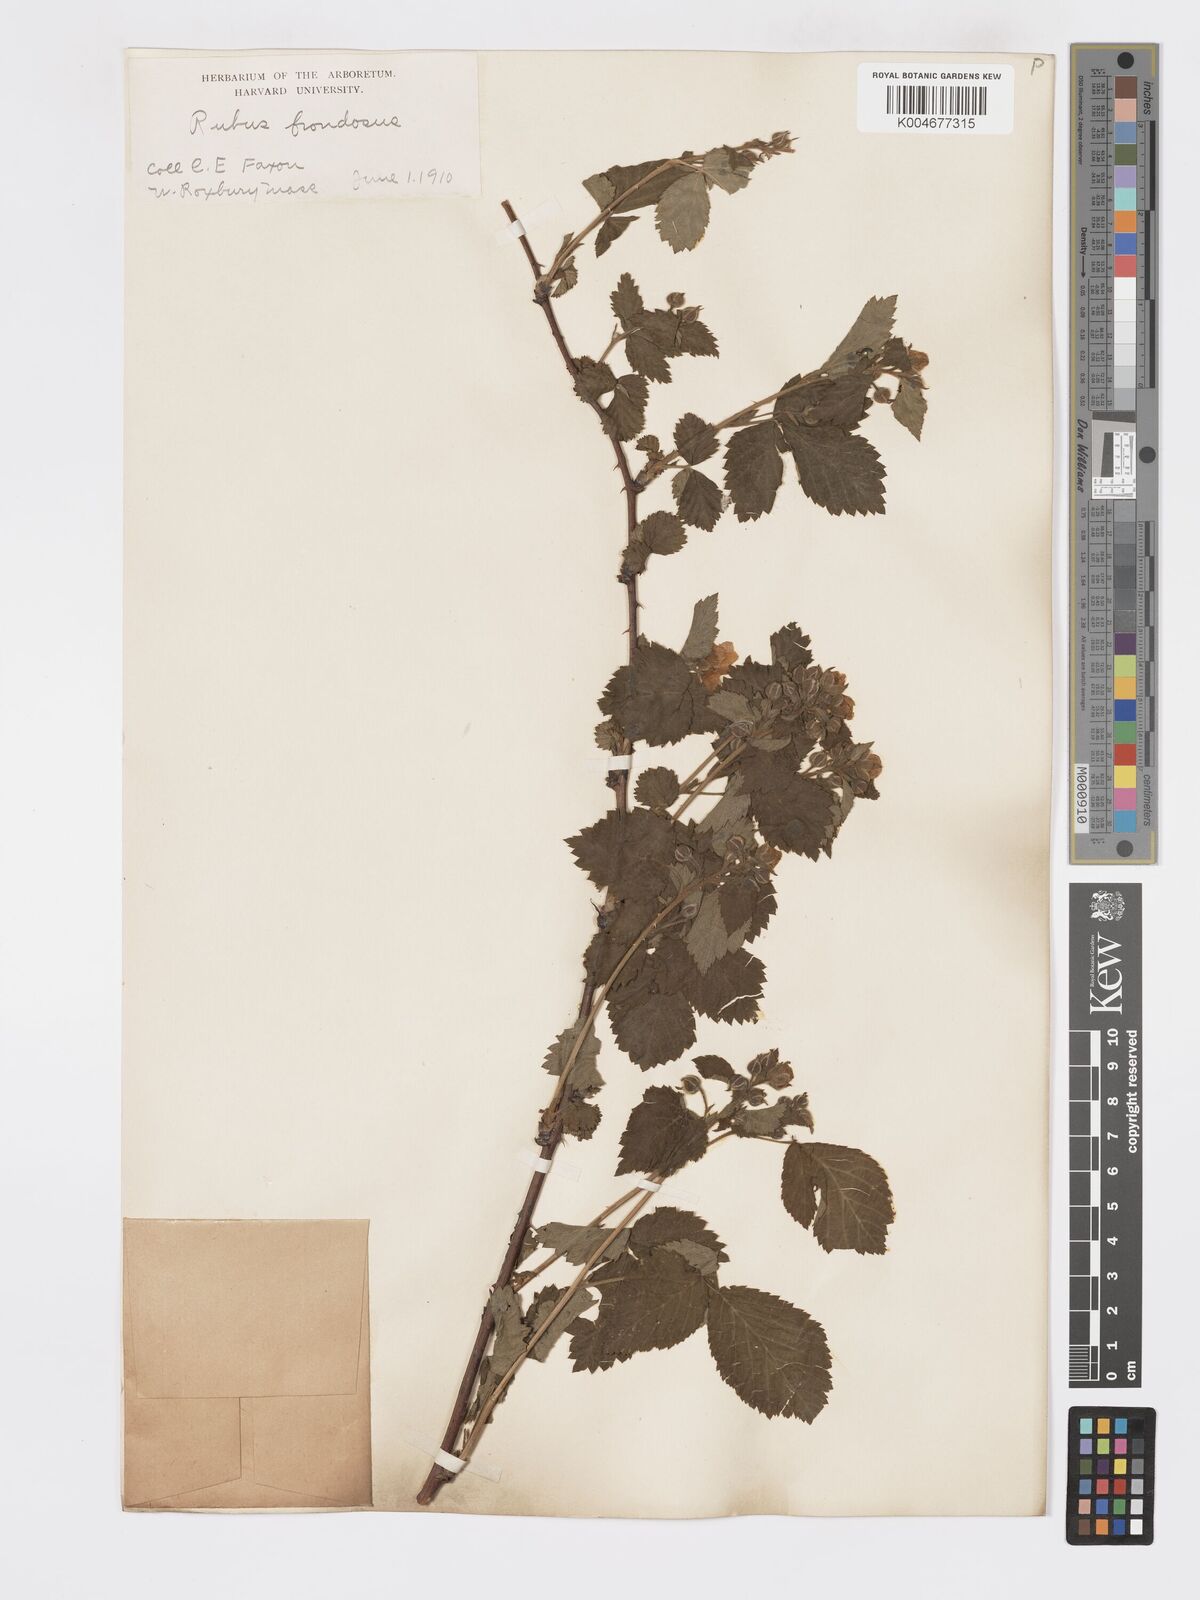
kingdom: Plantae
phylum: Tracheophyta
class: Magnoliopsida
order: Rosales
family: Rosaceae
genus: Rubus
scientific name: Rubus frondosus
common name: Yankee blackberry
